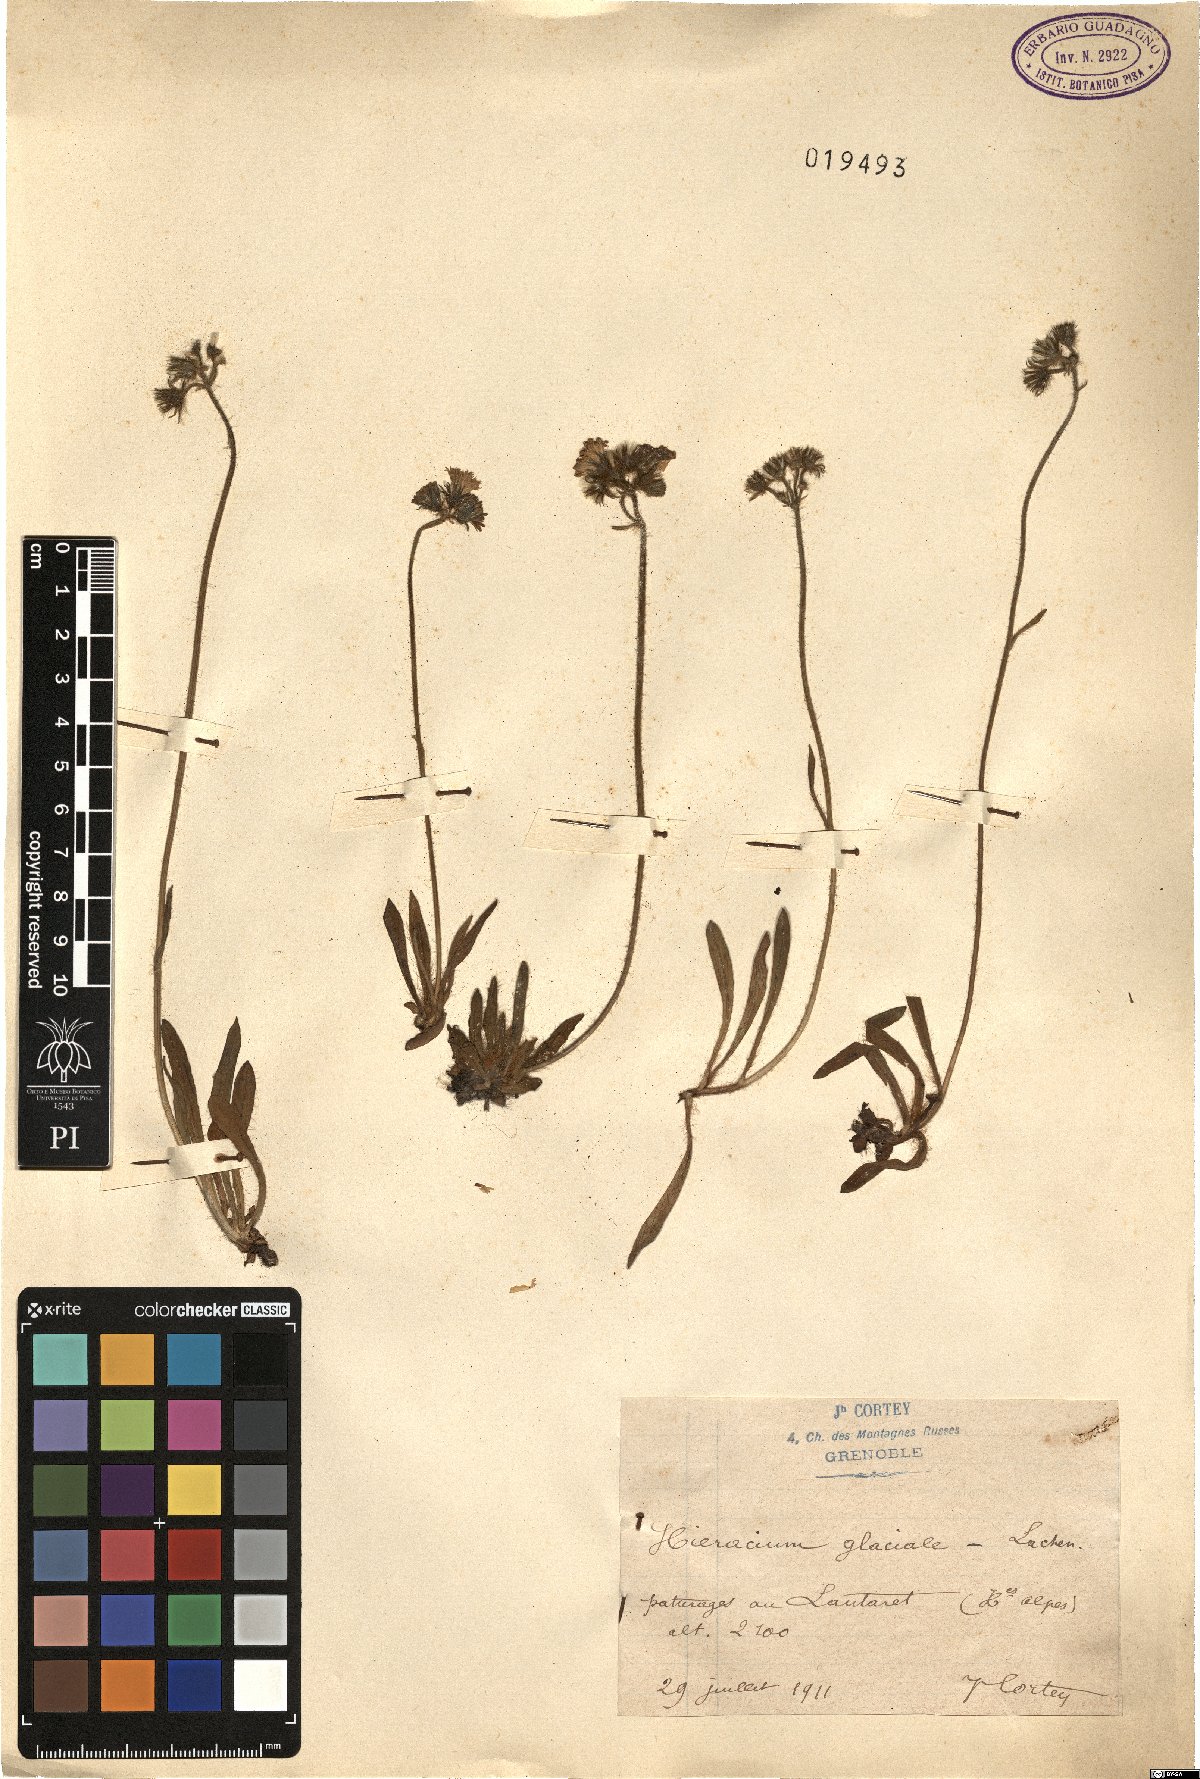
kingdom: Plantae
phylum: Tracheophyta
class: Magnoliopsida
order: Asterales
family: Asteraceae
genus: Pilosella
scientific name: Pilosella glacialis
